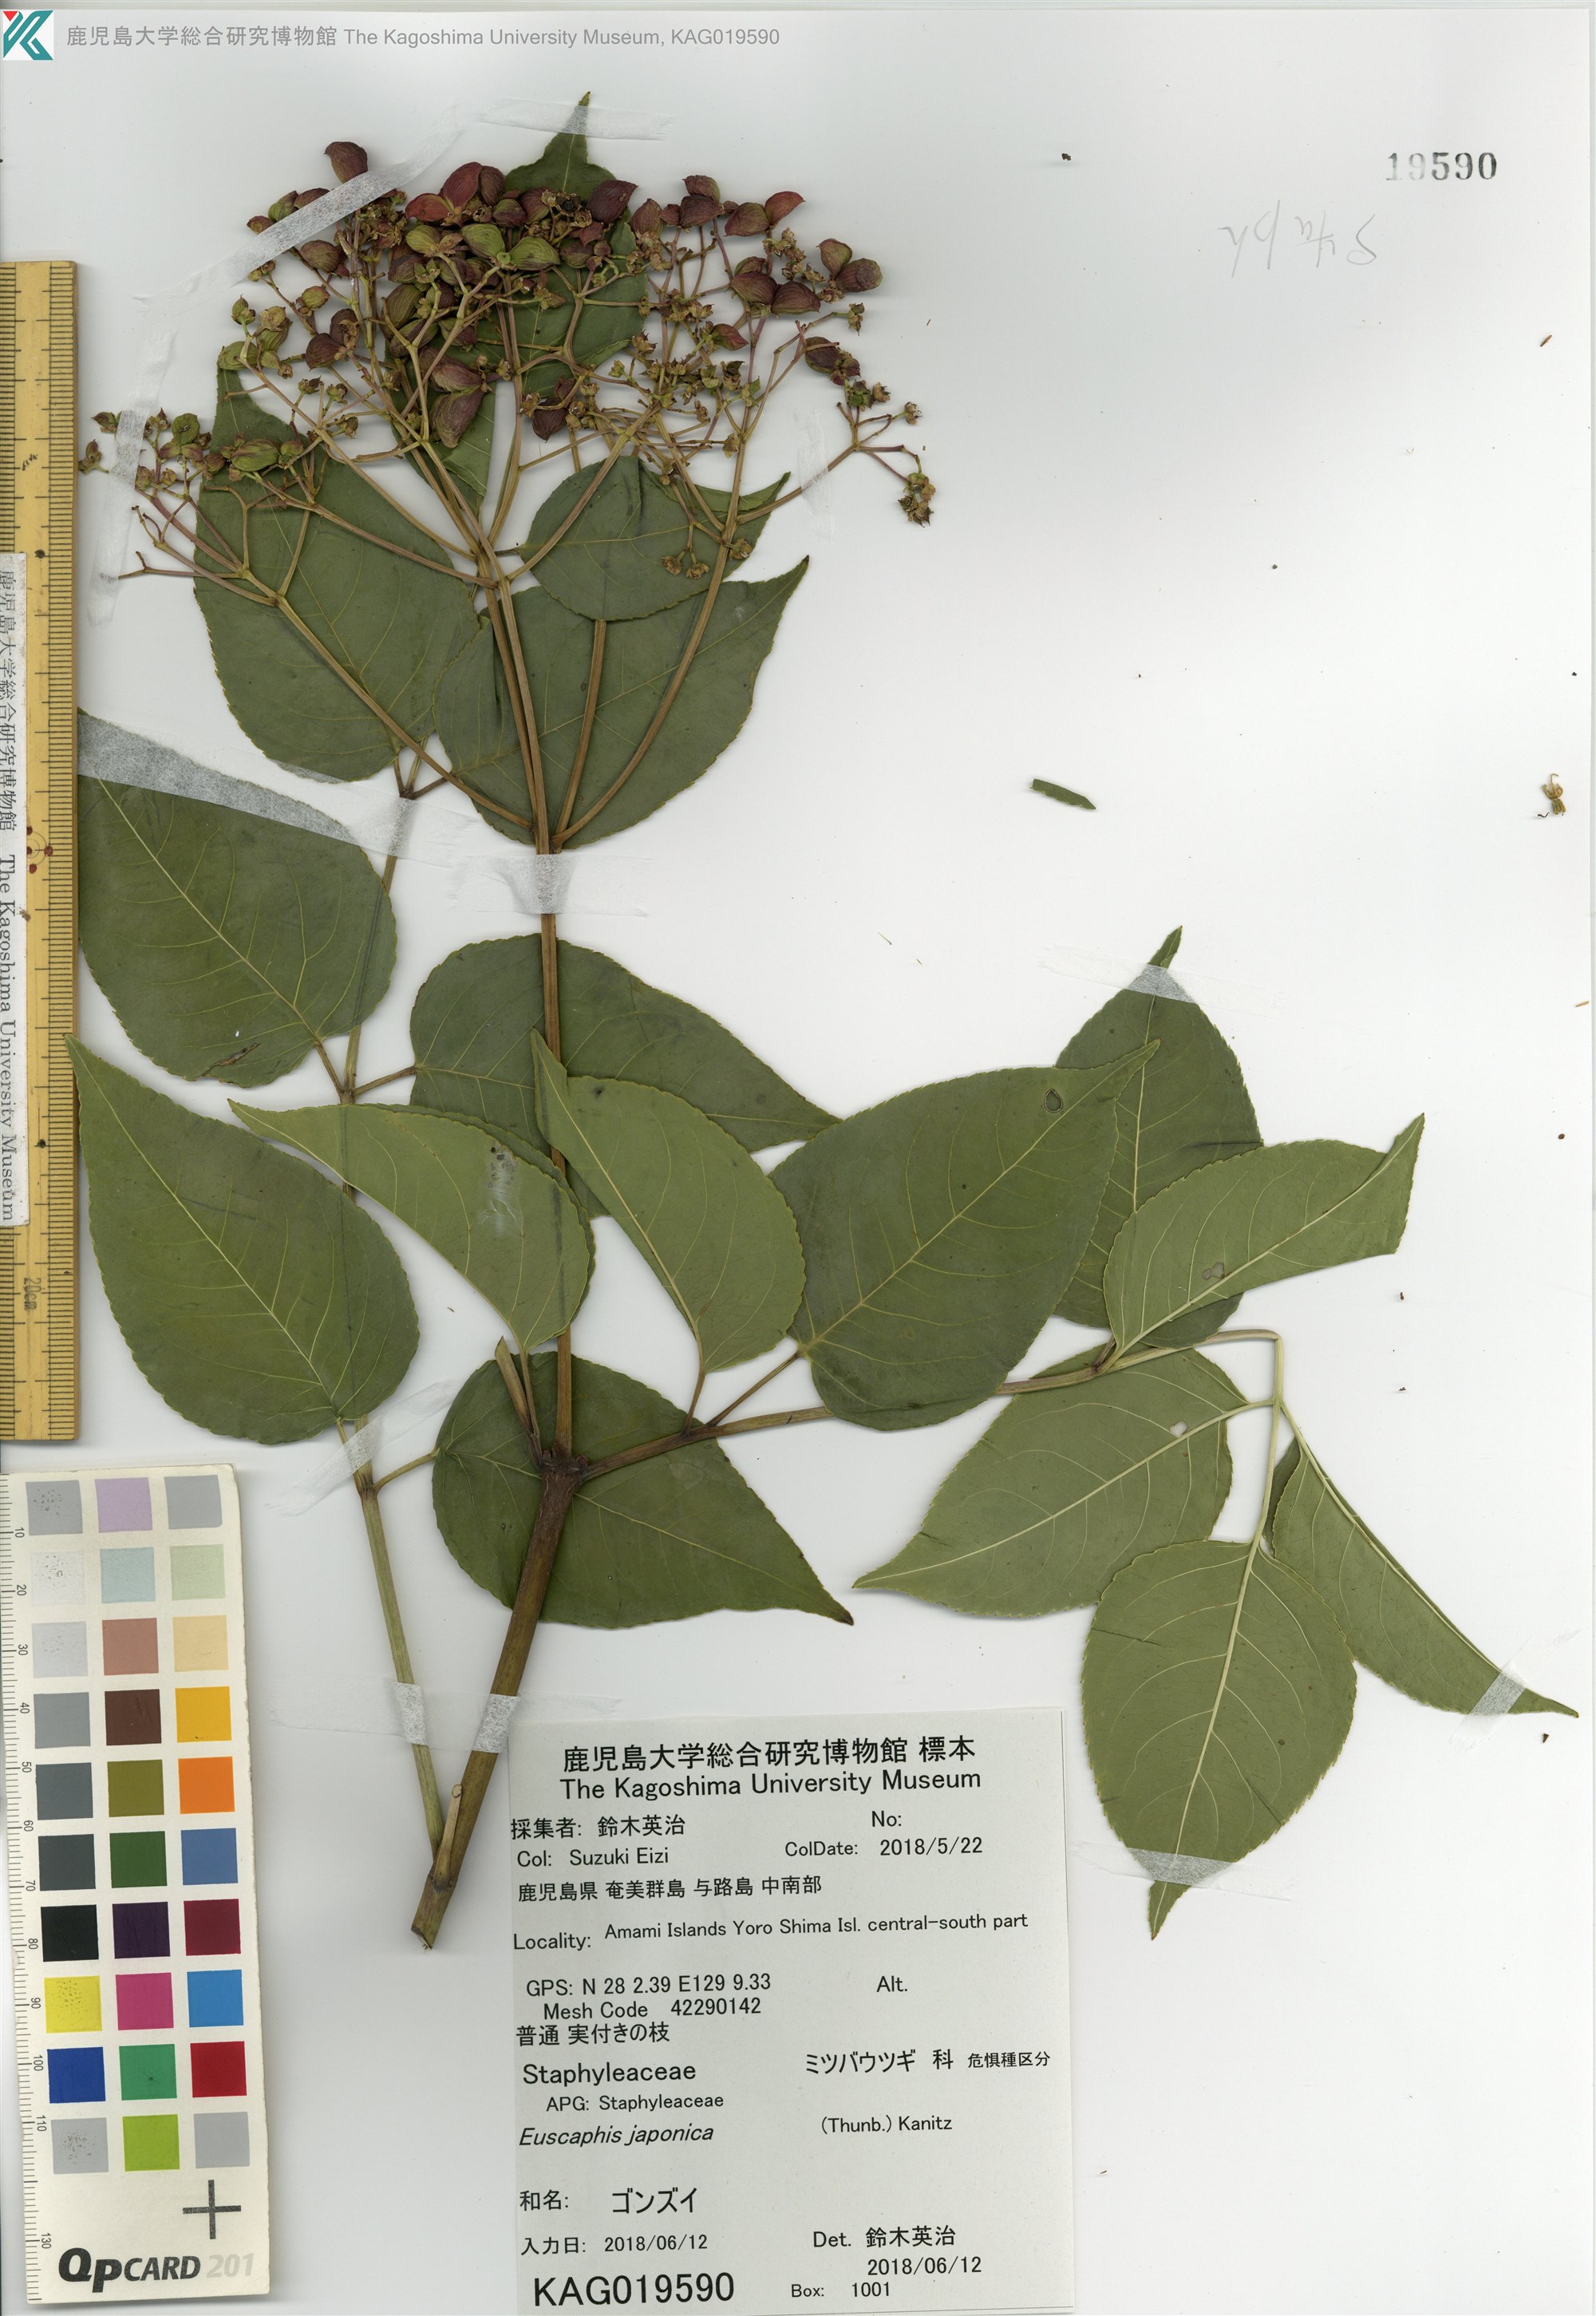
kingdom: Plantae
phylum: Tracheophyta
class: Magnoliopsida
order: Crossosomatales
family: Staphyleaceae
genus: Staphylea
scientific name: Staphylea japonica
